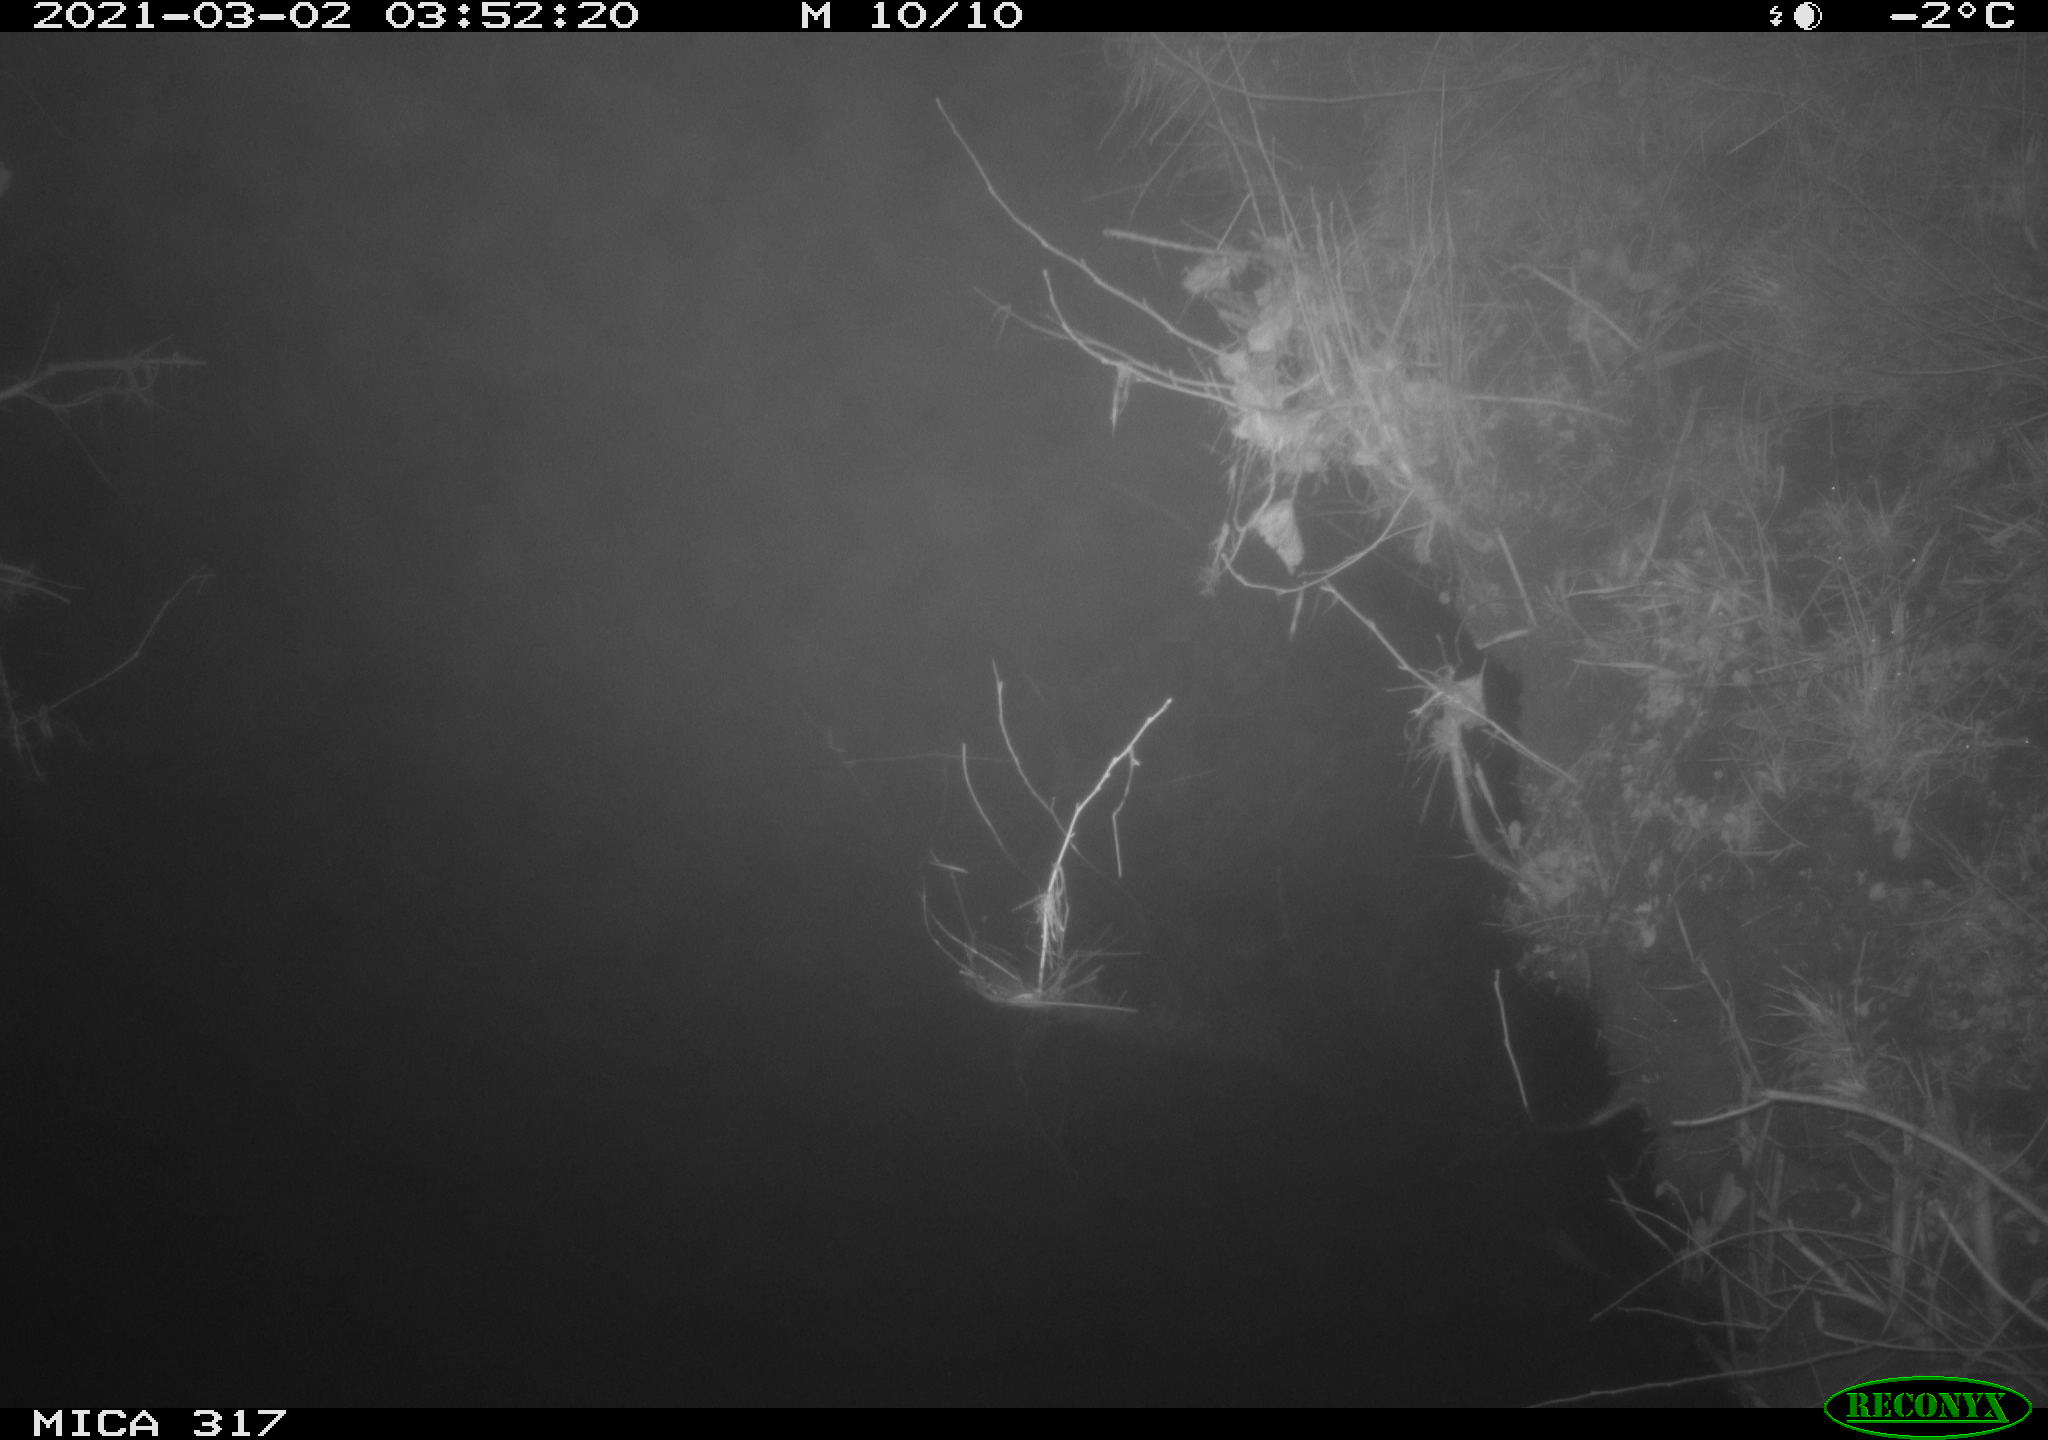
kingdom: Animalia
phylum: Chordata
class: Aves
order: Anseriformes
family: Anatidae
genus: Anas
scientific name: Anas platyrhynchos
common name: Mallard
